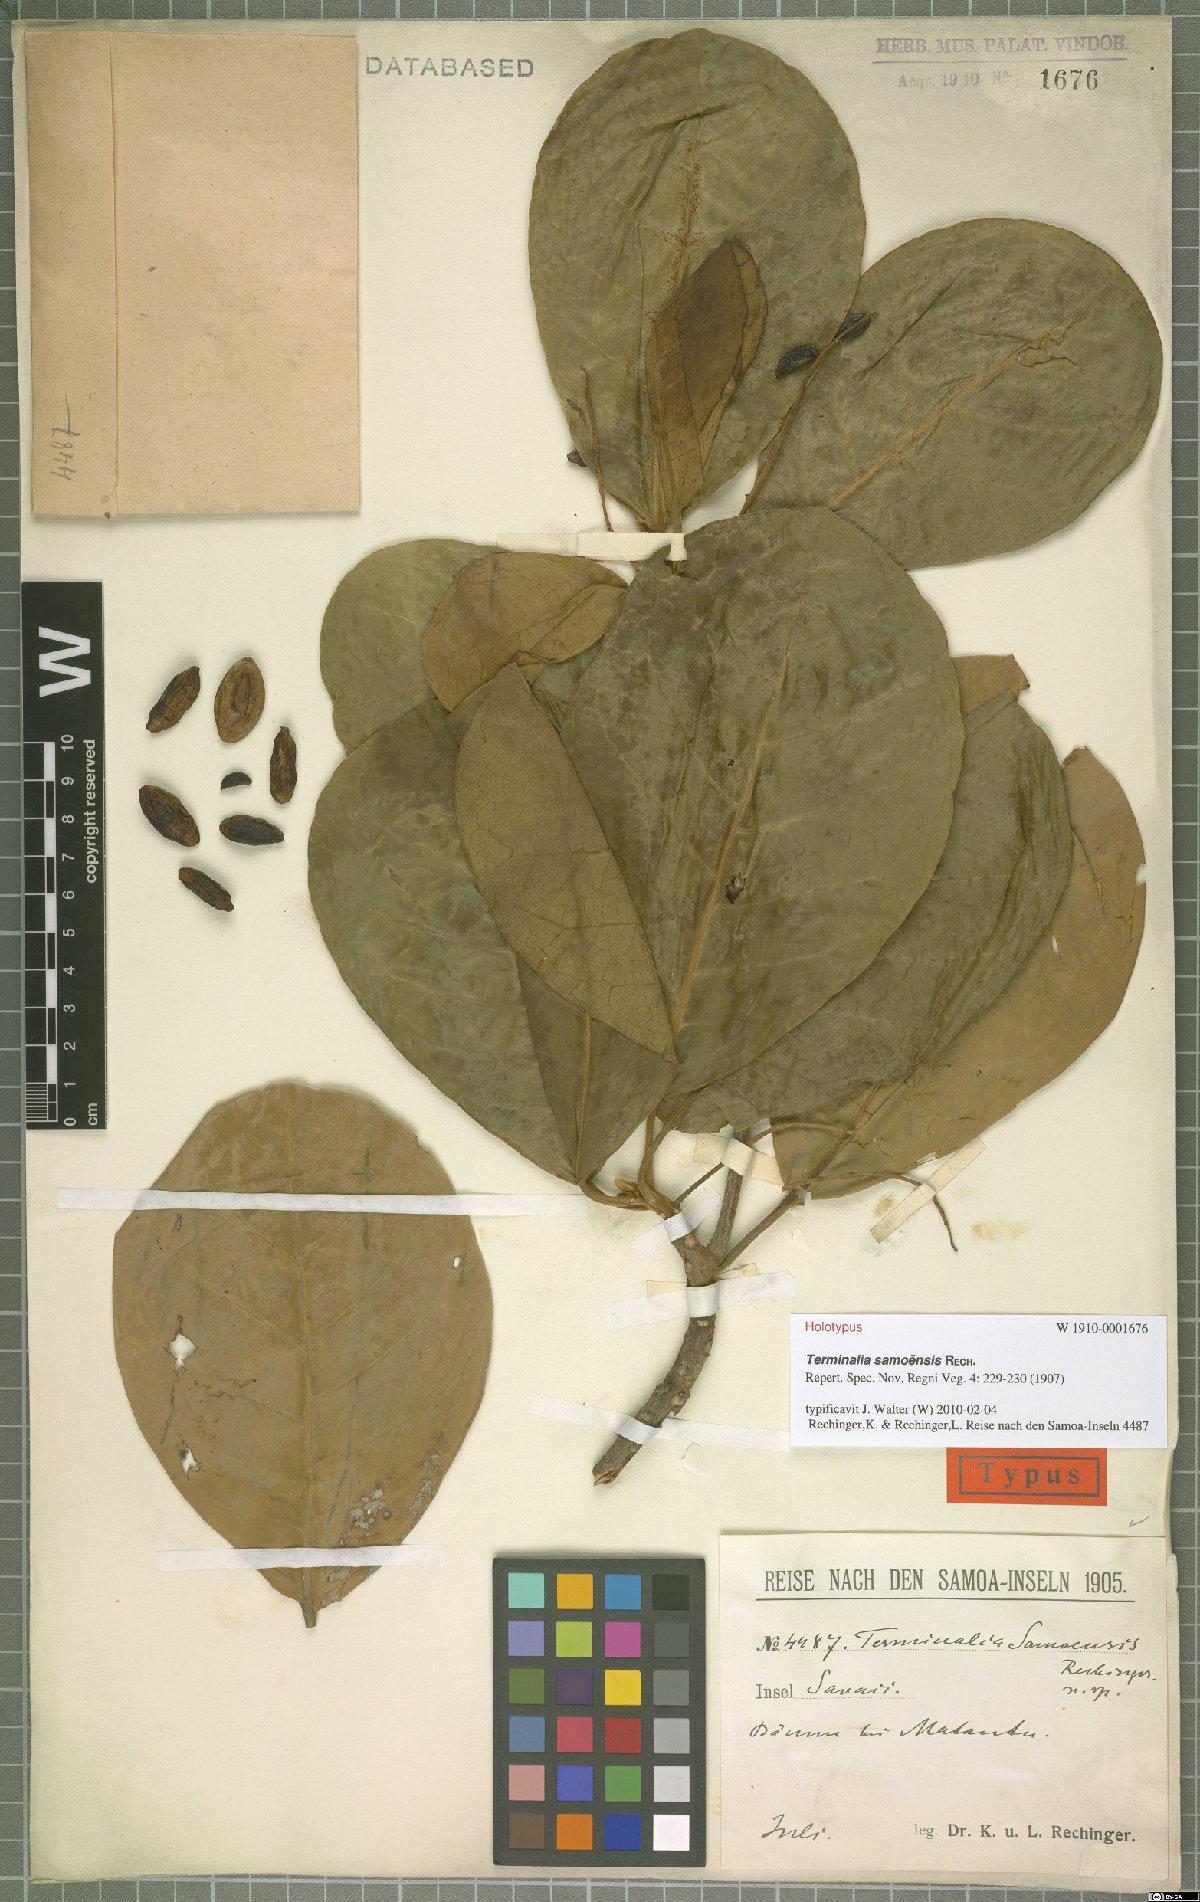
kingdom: Plantae
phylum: Tracheophyta
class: Magnoliopsida
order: Myrtales
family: Combretaceae
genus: Terminalia
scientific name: Terminalia samoensis
